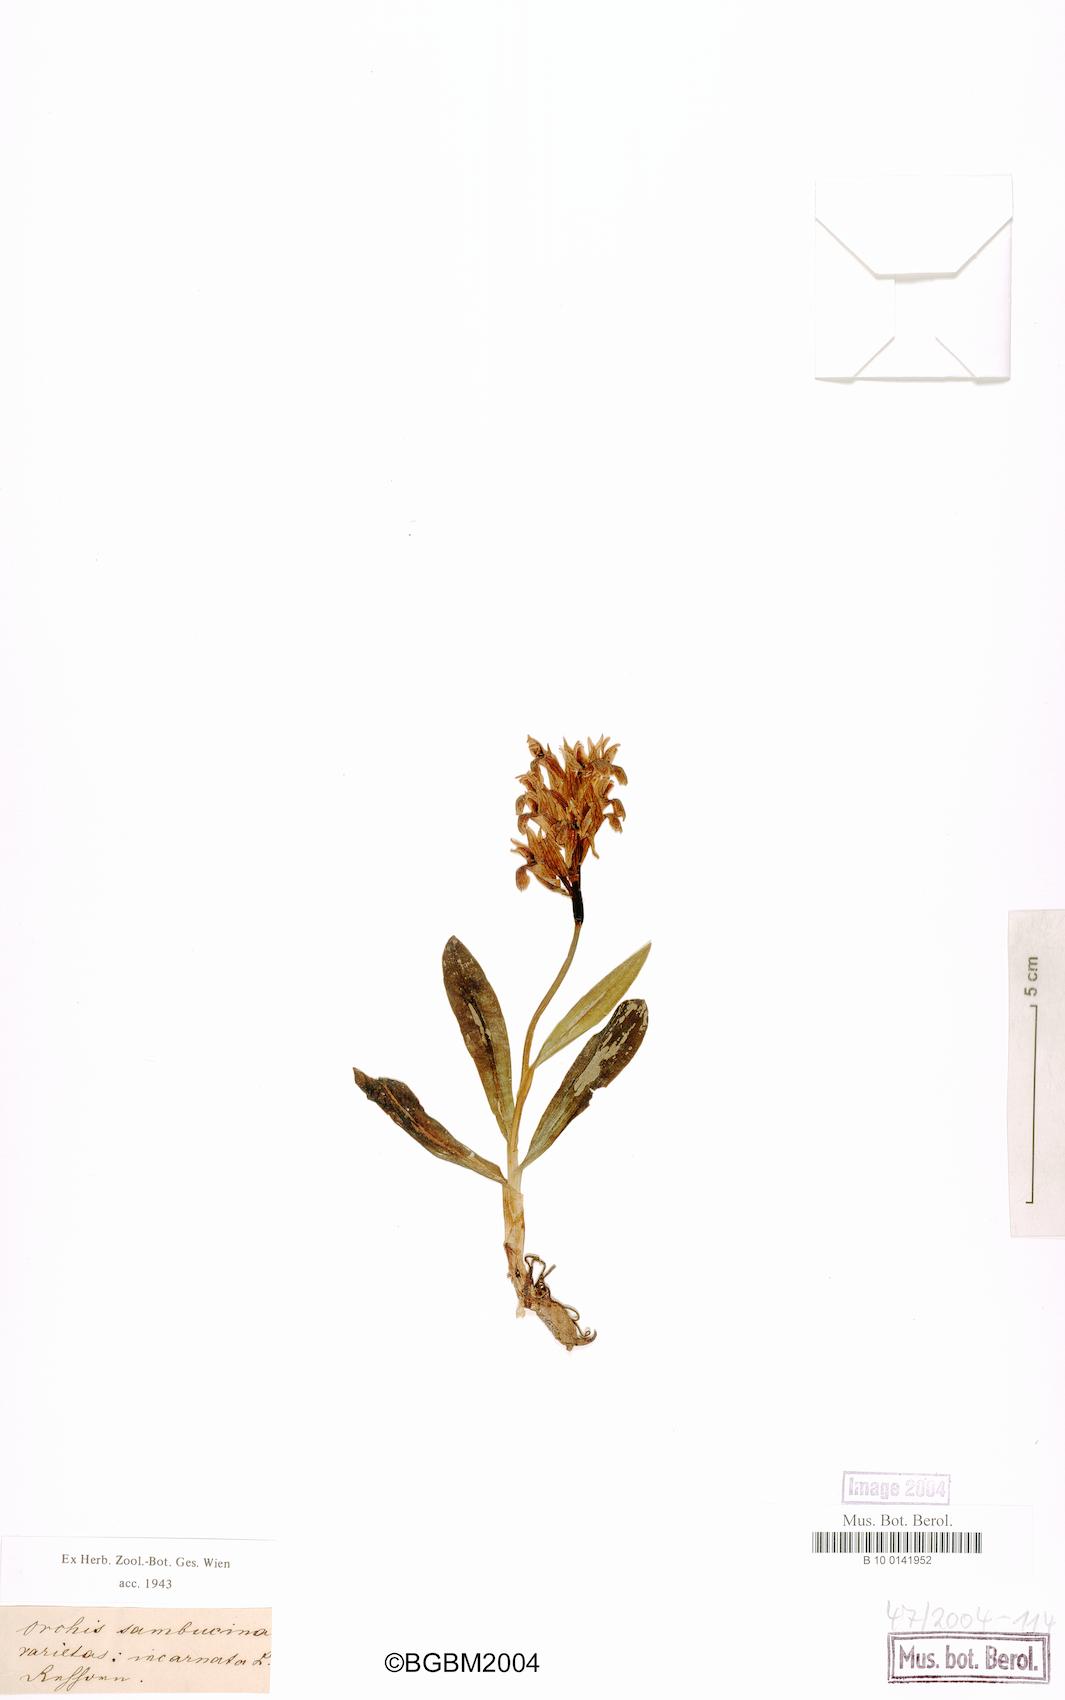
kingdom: Plantae
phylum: Tracheophyta
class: Liliopsida
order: Asparagales
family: Orchidaceae
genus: Dactylorhiza
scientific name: Dactylorhiza sambucina
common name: Elder-flowered orchid
